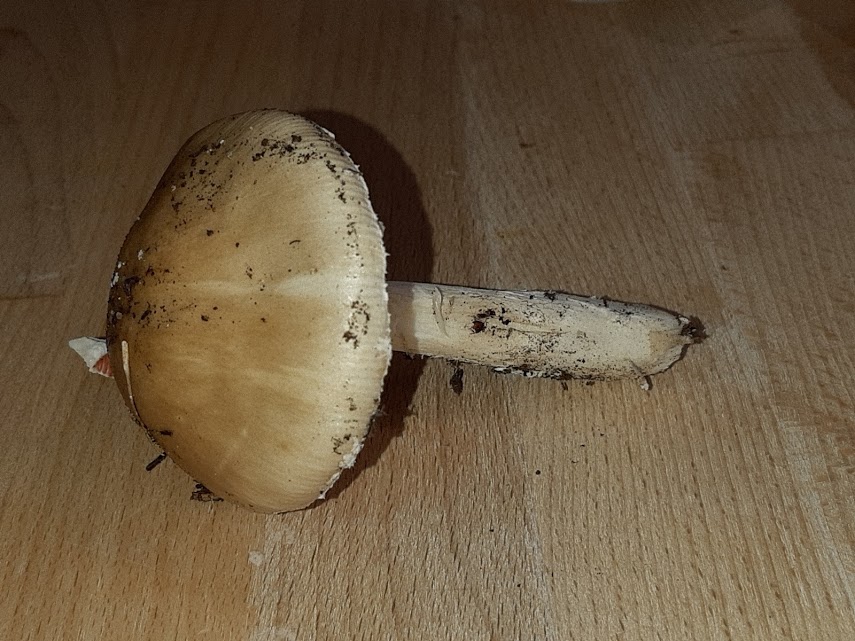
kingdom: Fungi
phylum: Basidiomycota
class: Agaricomycetes
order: Agaricales
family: Amanitaceae
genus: Amanita
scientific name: Amanita porphyria
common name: porfyr-fluesvamp
